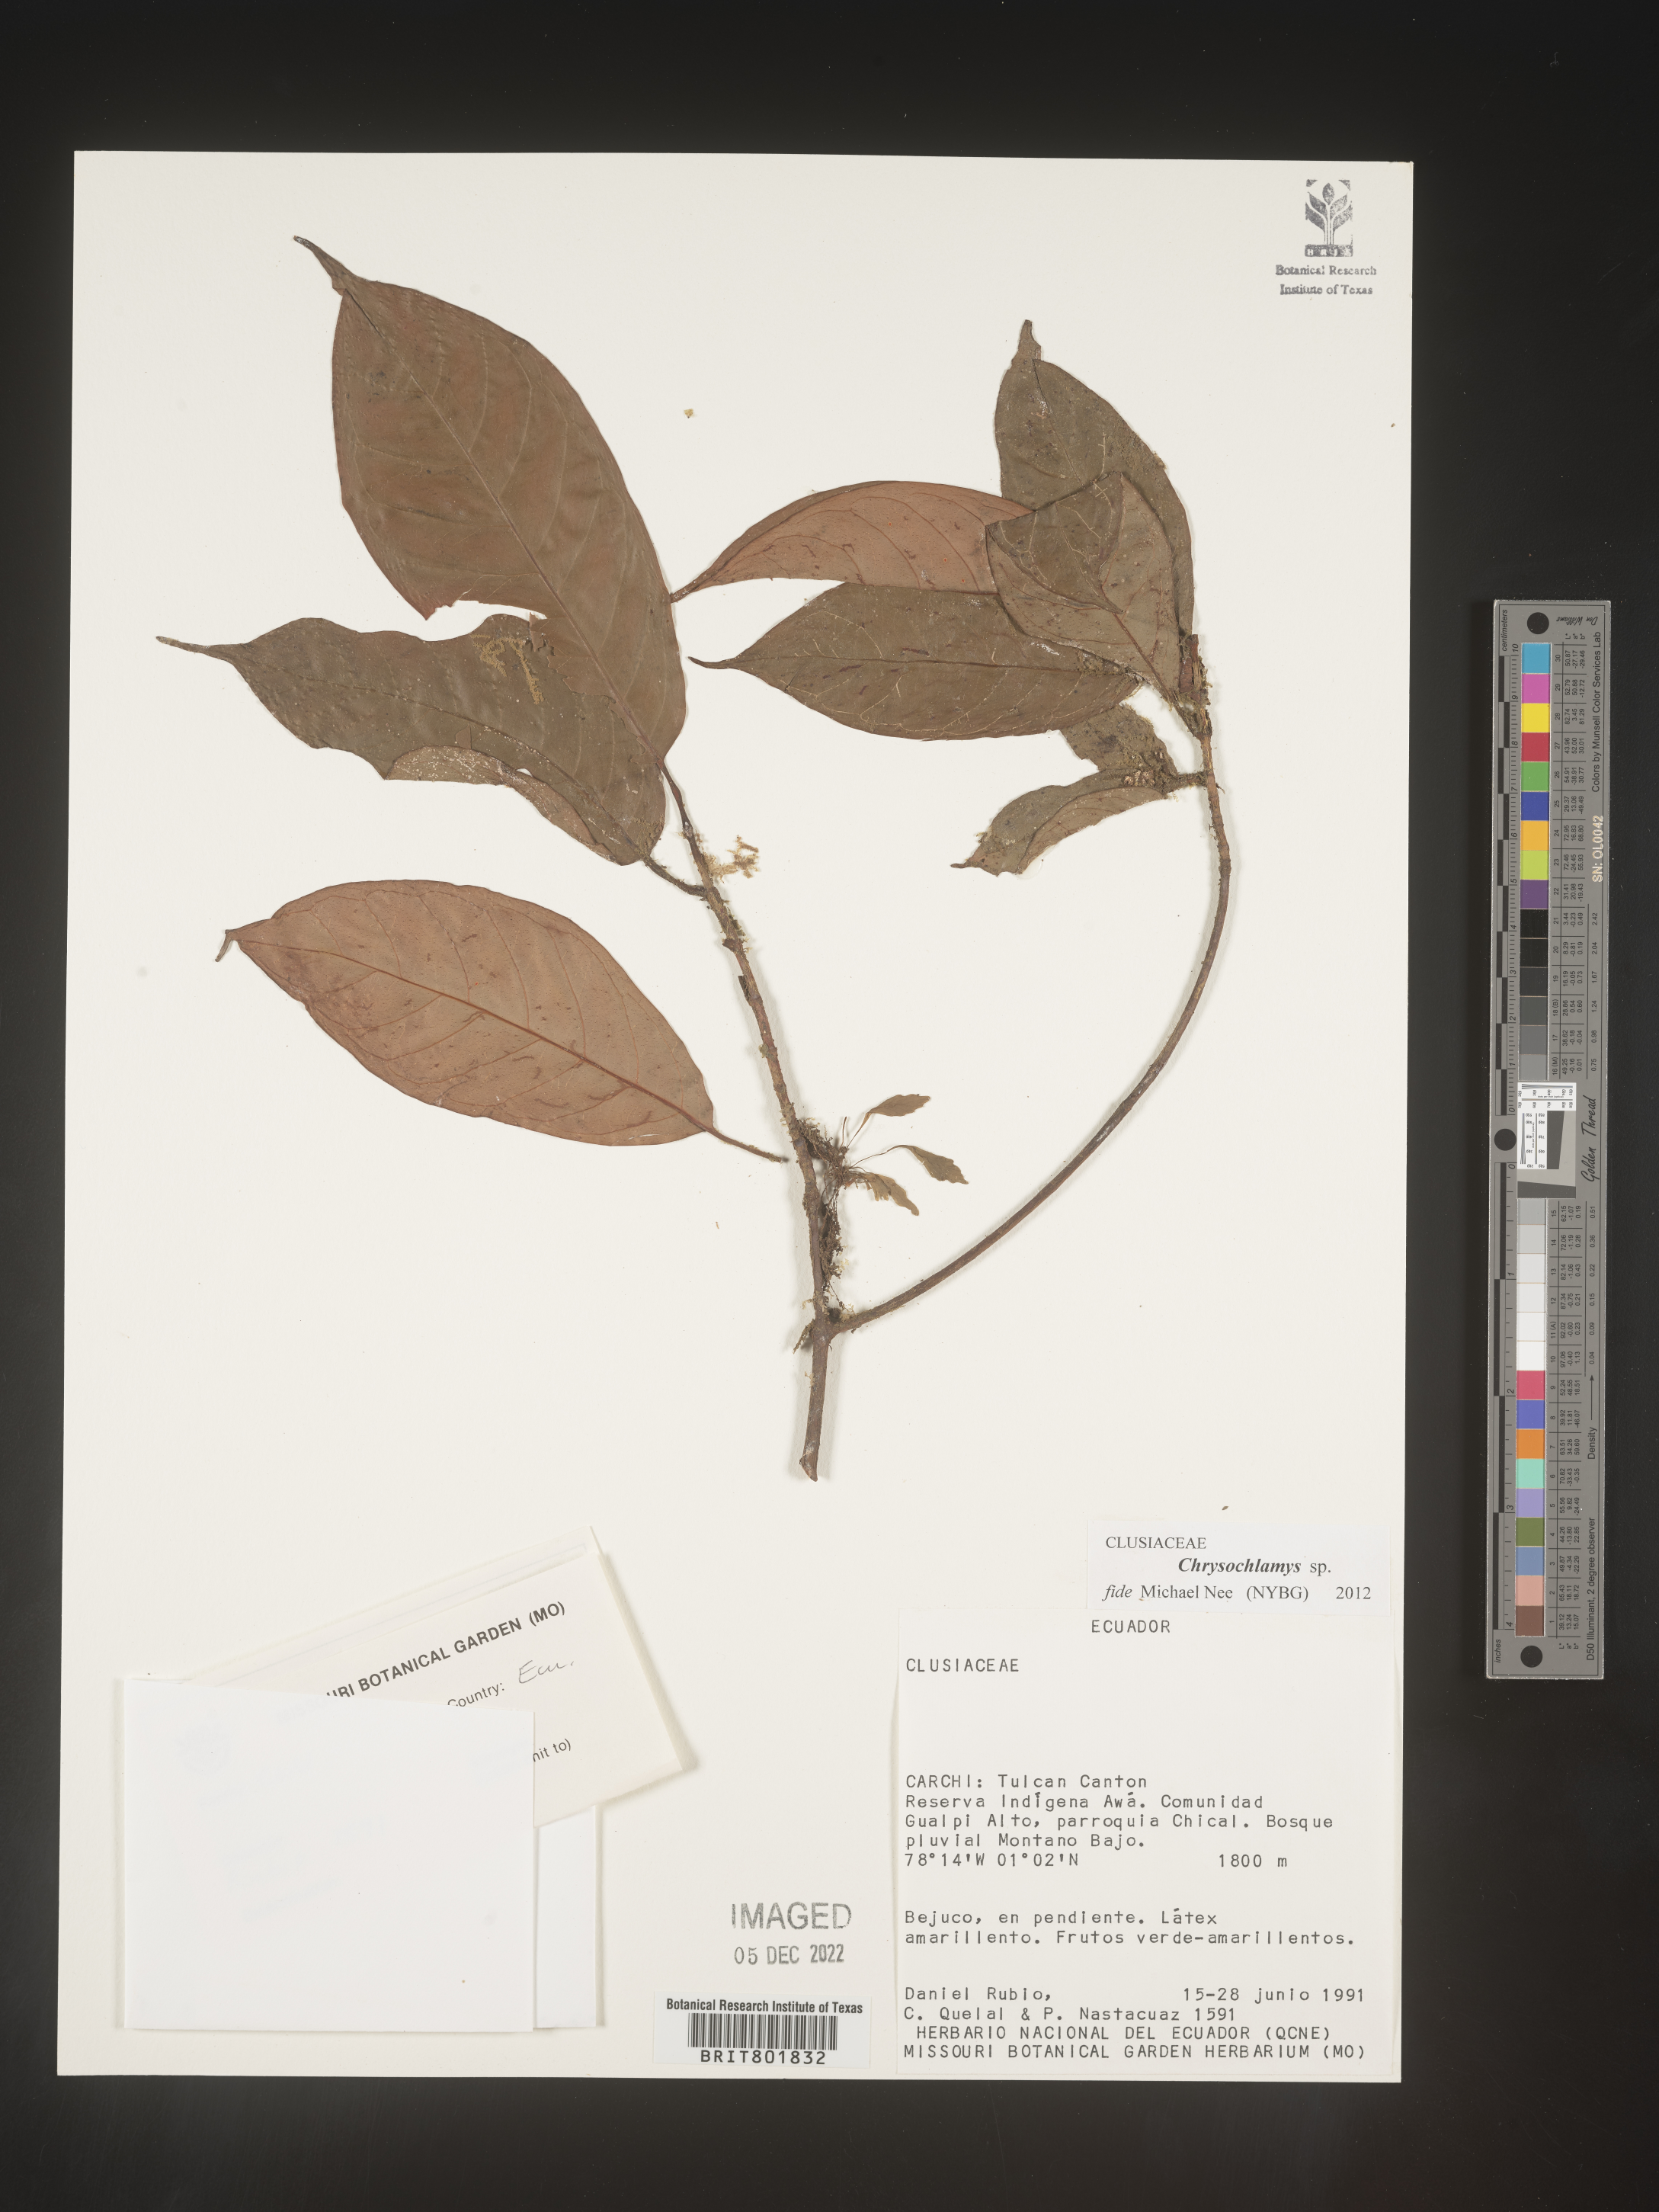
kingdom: Plantae
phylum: Tracheophyta
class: Magnoliopsida
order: Malpighiales
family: Clusiaceae
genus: Chrysochlamys
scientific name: Chrysochlamys
